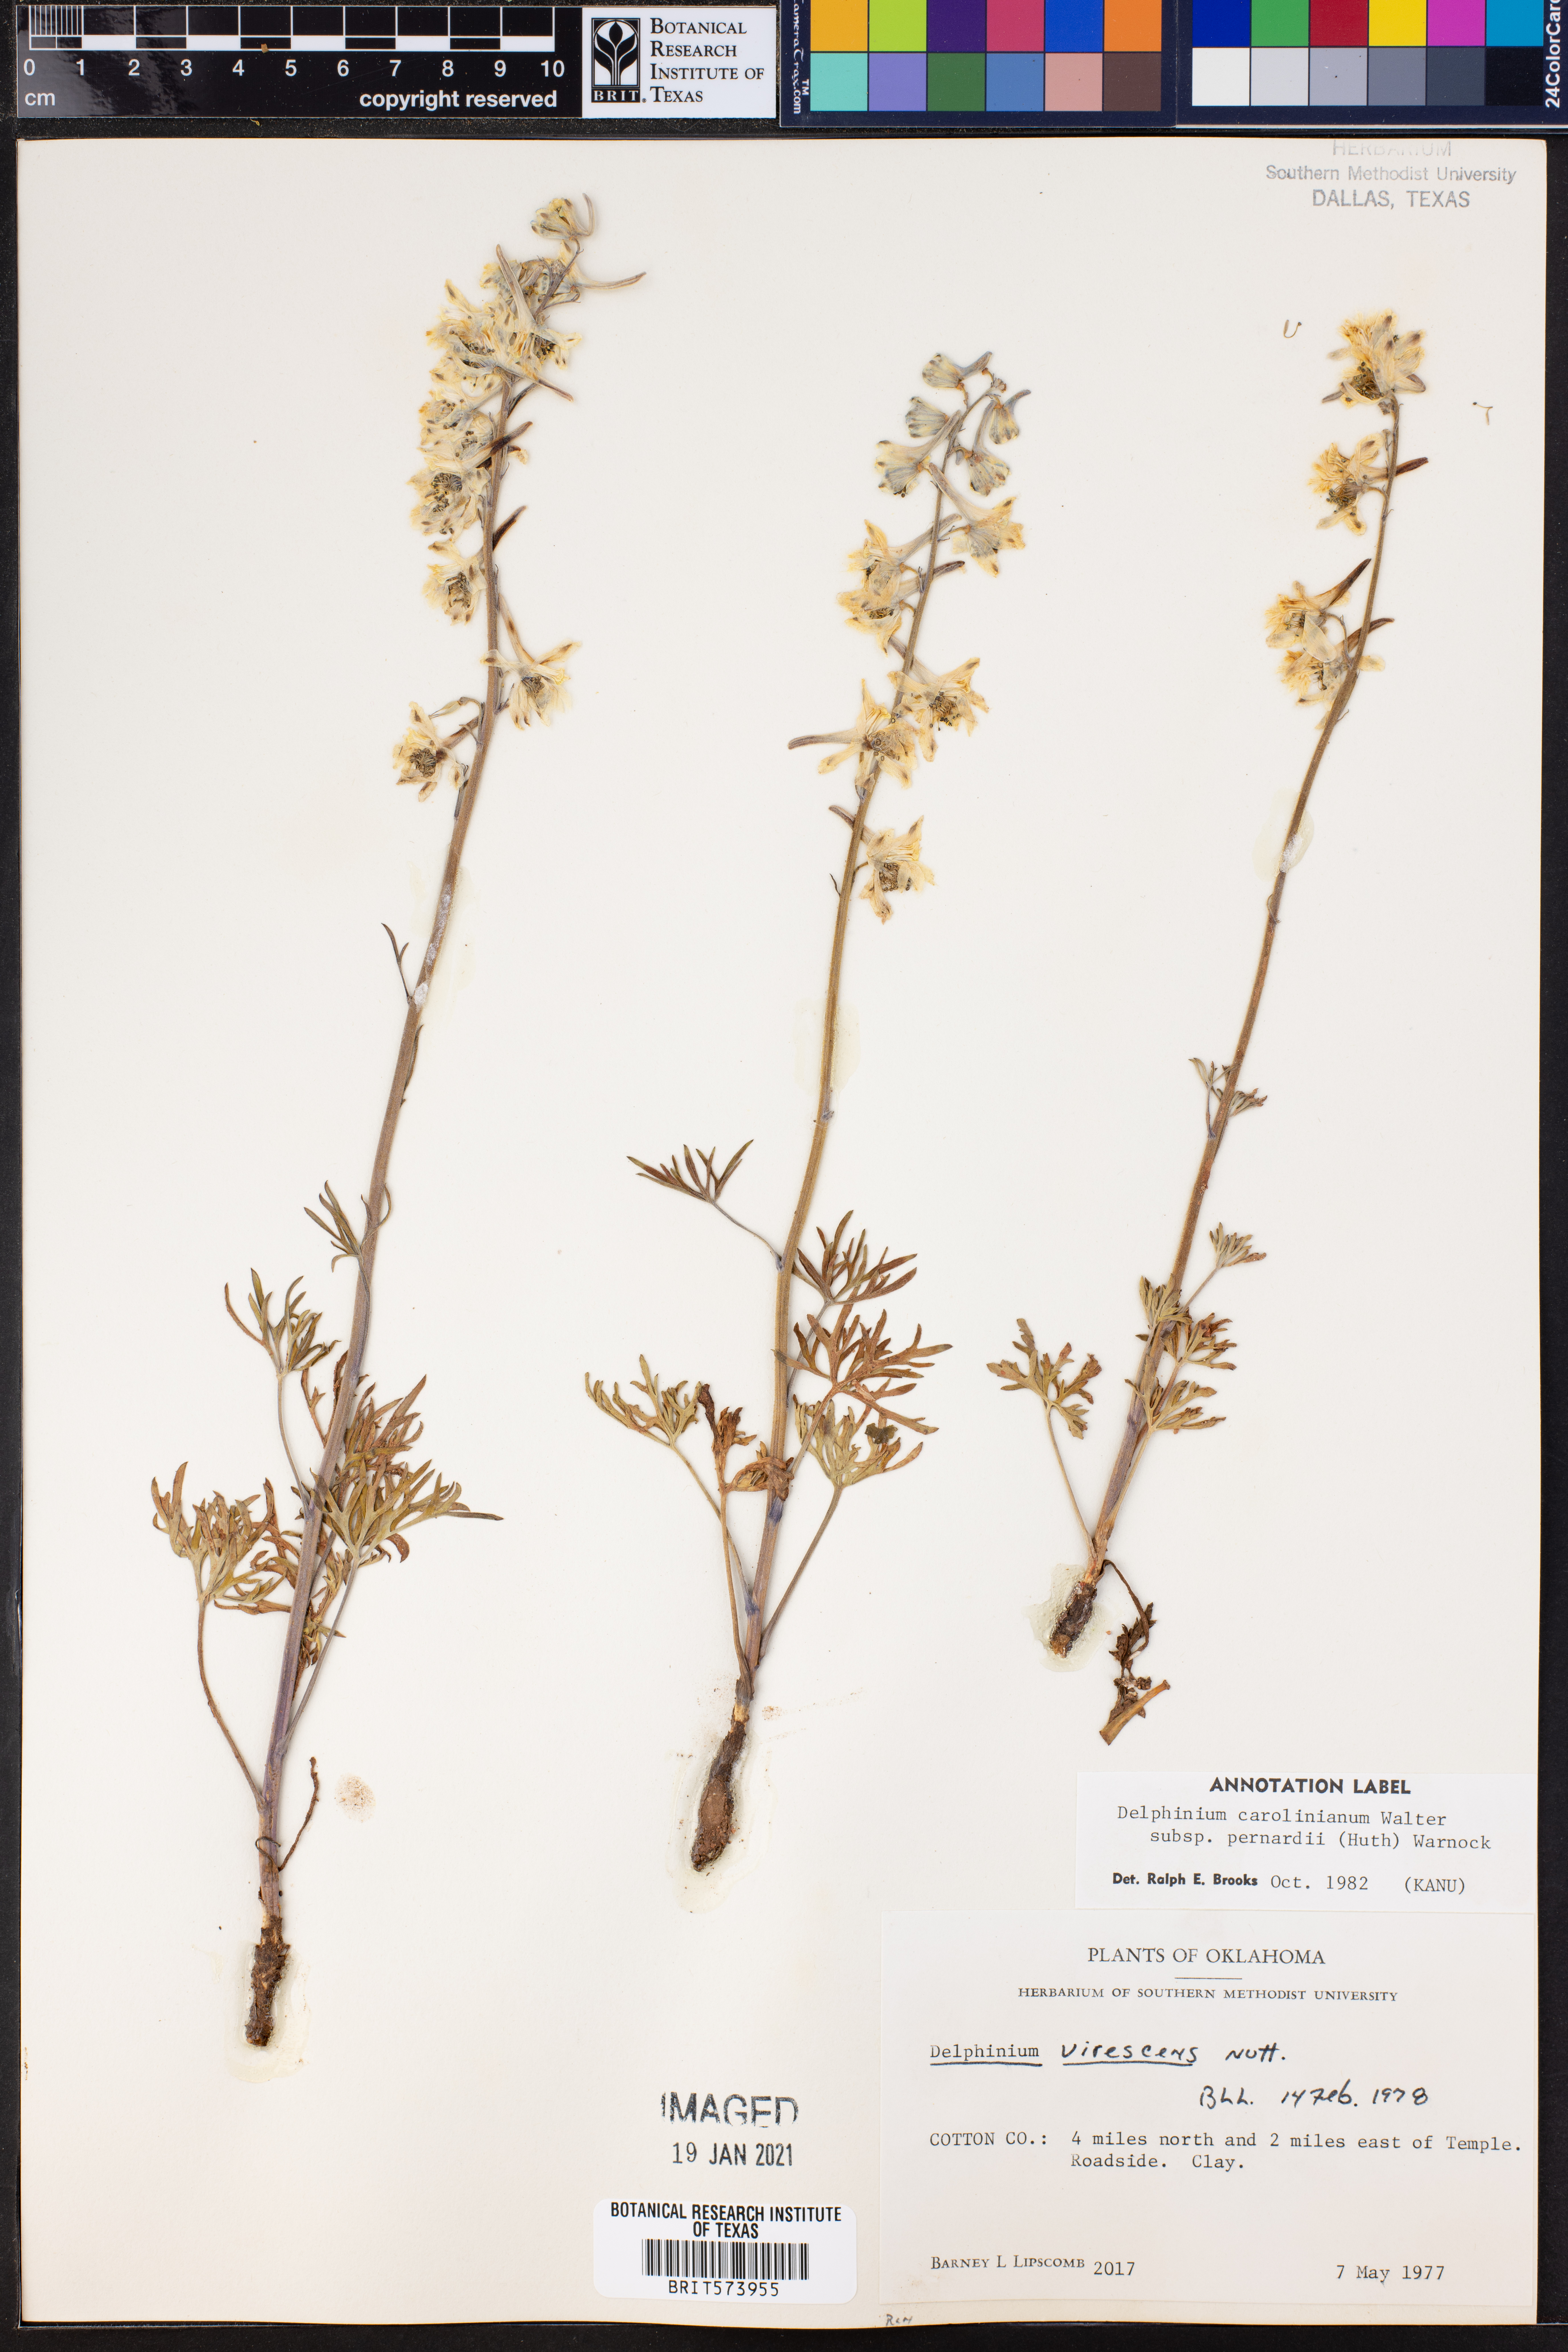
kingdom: Plantae
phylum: Tracheophyta
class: Magnoliopsida
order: Ranunculales
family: Ranunculaceae
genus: Delphinium
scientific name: Delphinium carolinianum
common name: Carolina larkspur
